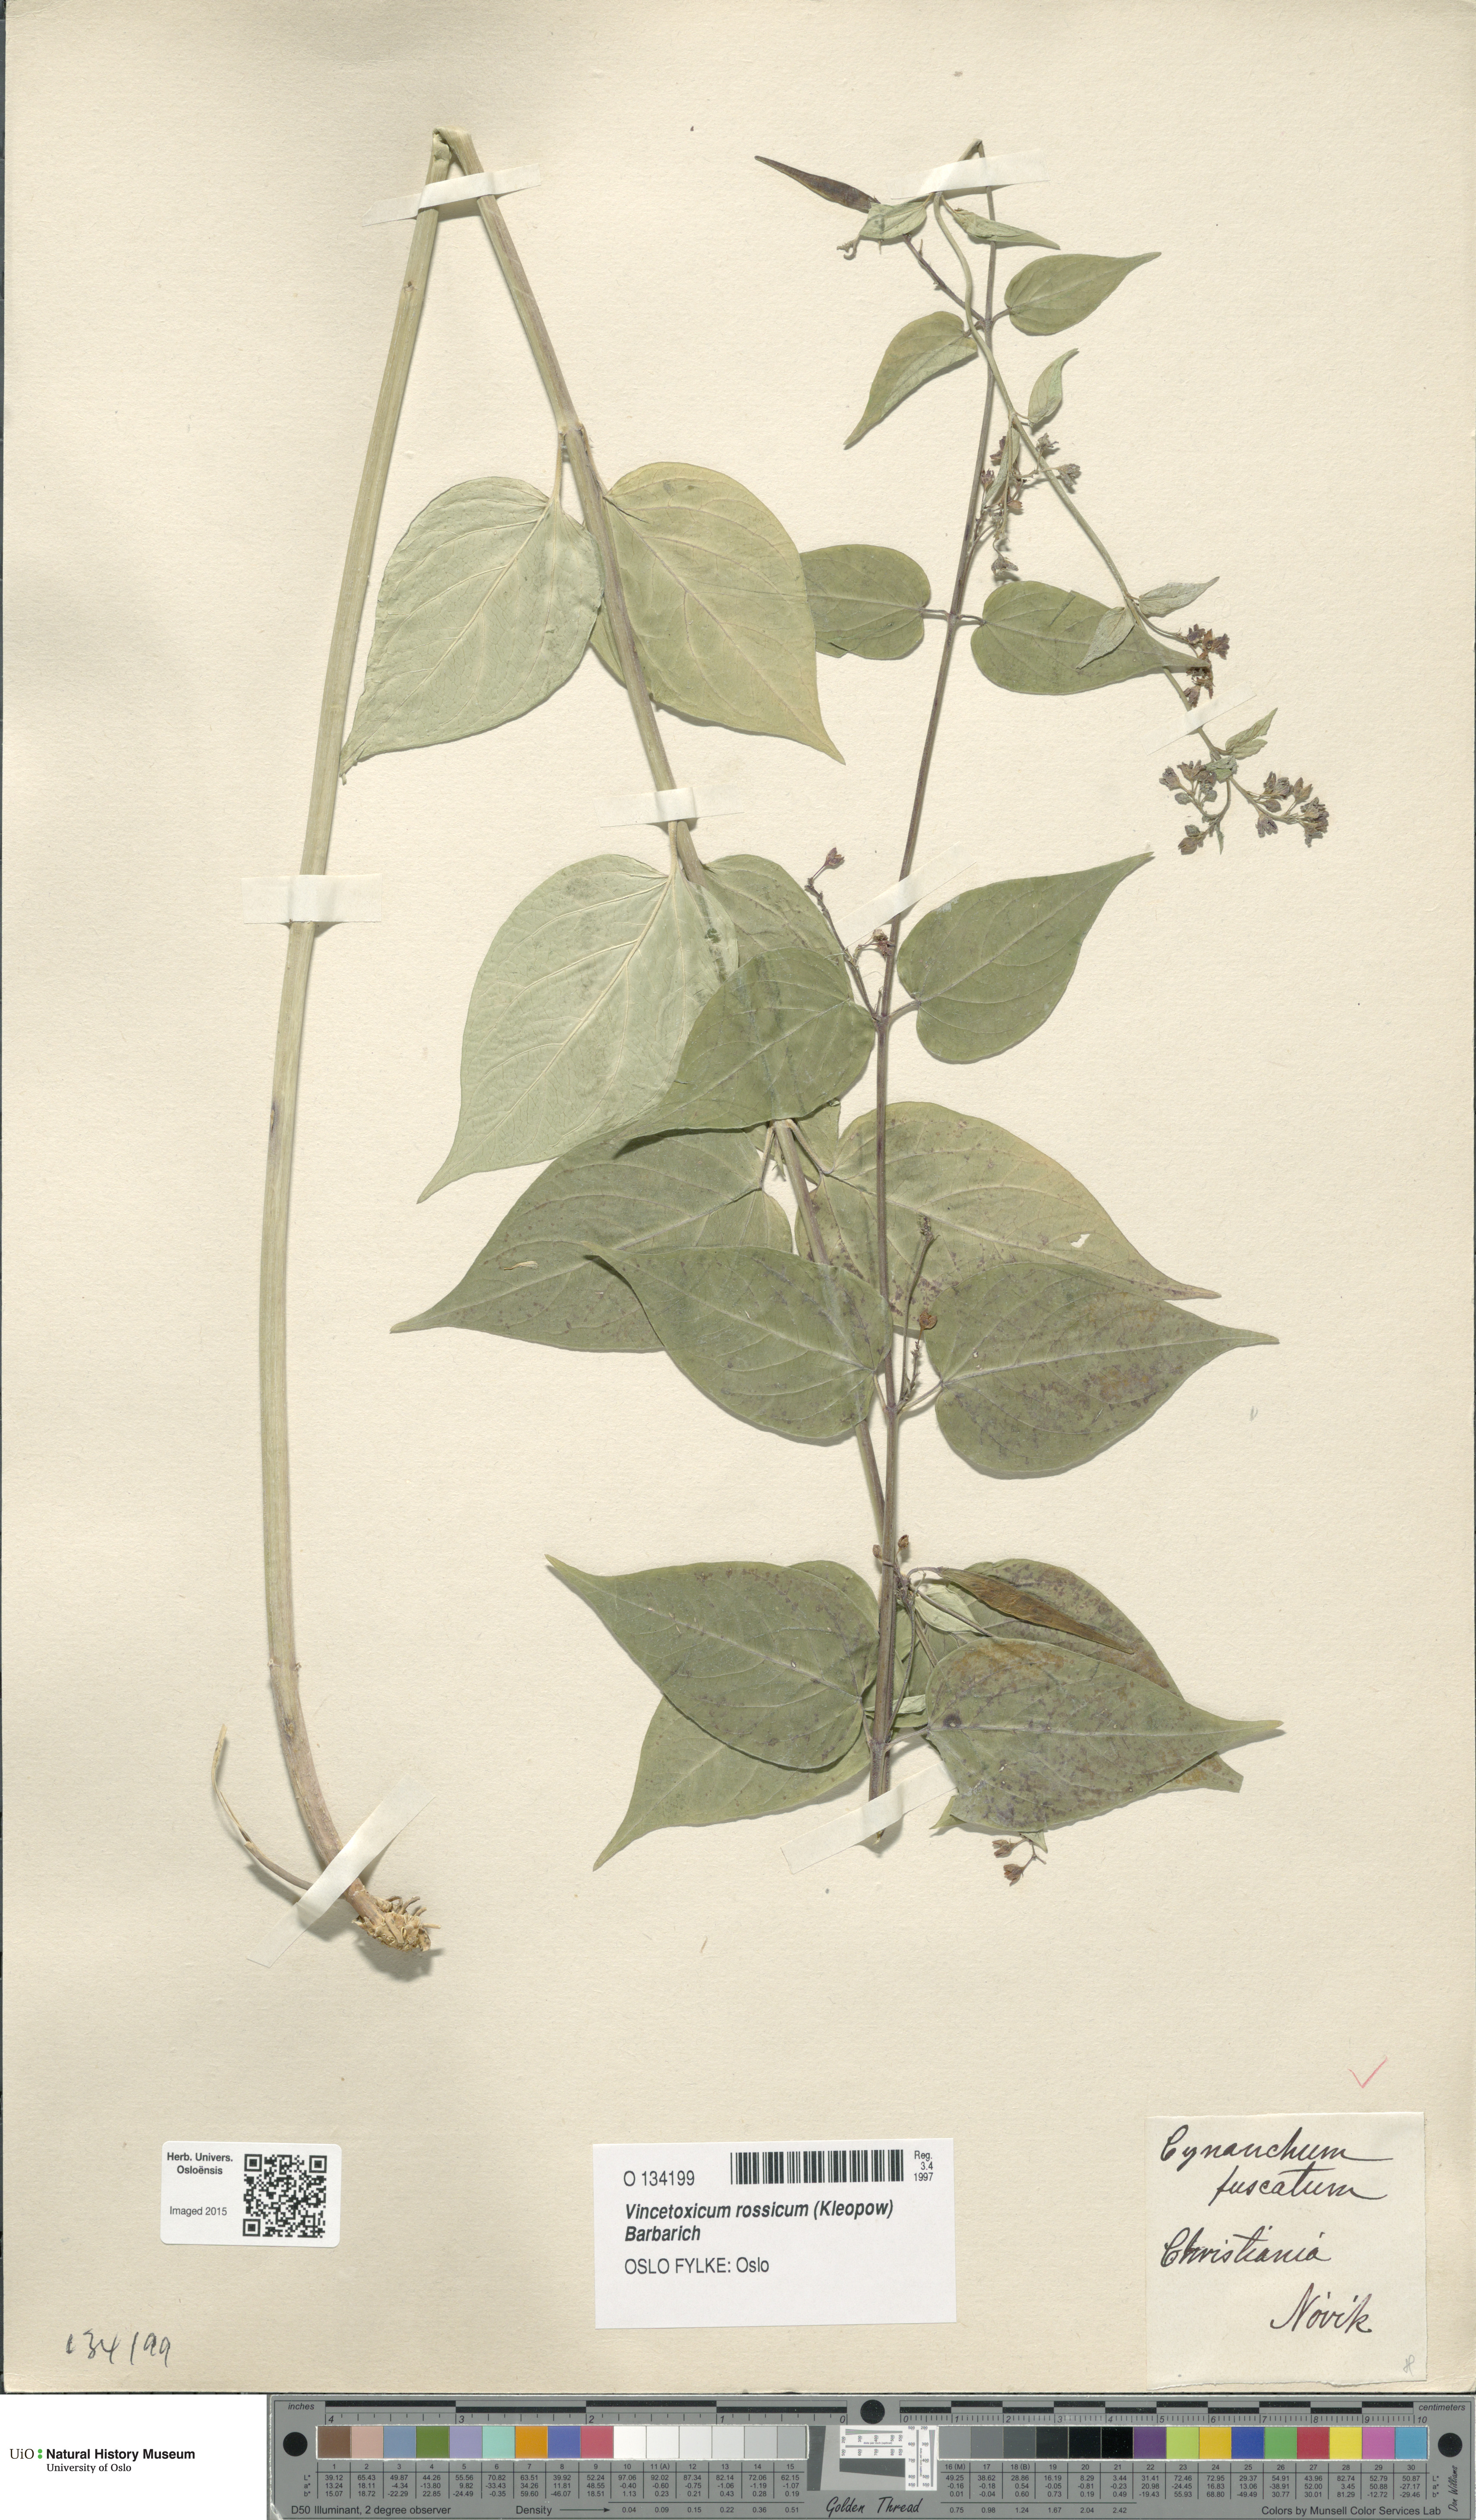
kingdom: Plantae
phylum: Tracheophyta
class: Magnoliopsida
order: Gentianales
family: Apocynaceae
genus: Vincetoxicum
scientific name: Vincetoxicum rossicum
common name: Dog-strangling vine
